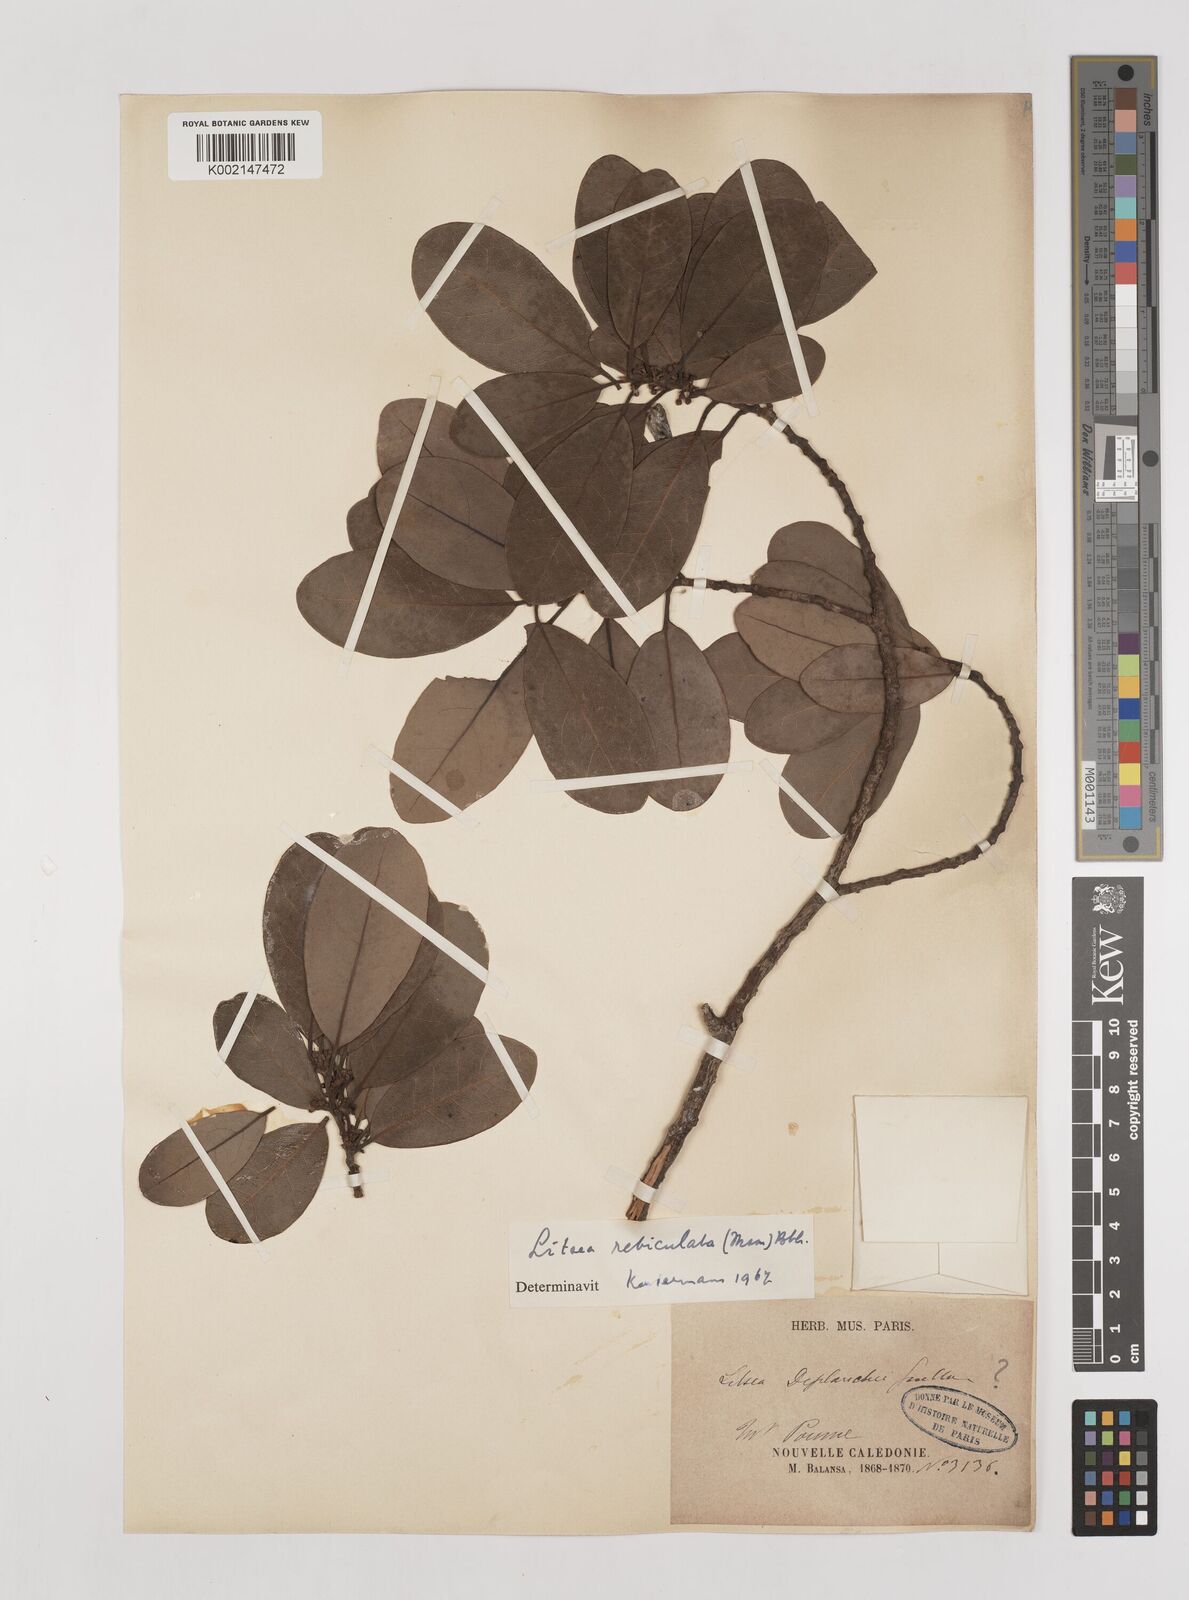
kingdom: Plantae
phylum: Tracheophyta
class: Magnoliopsida
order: Laurales
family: Lauraceae
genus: Litsea
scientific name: Litsea reticulata
